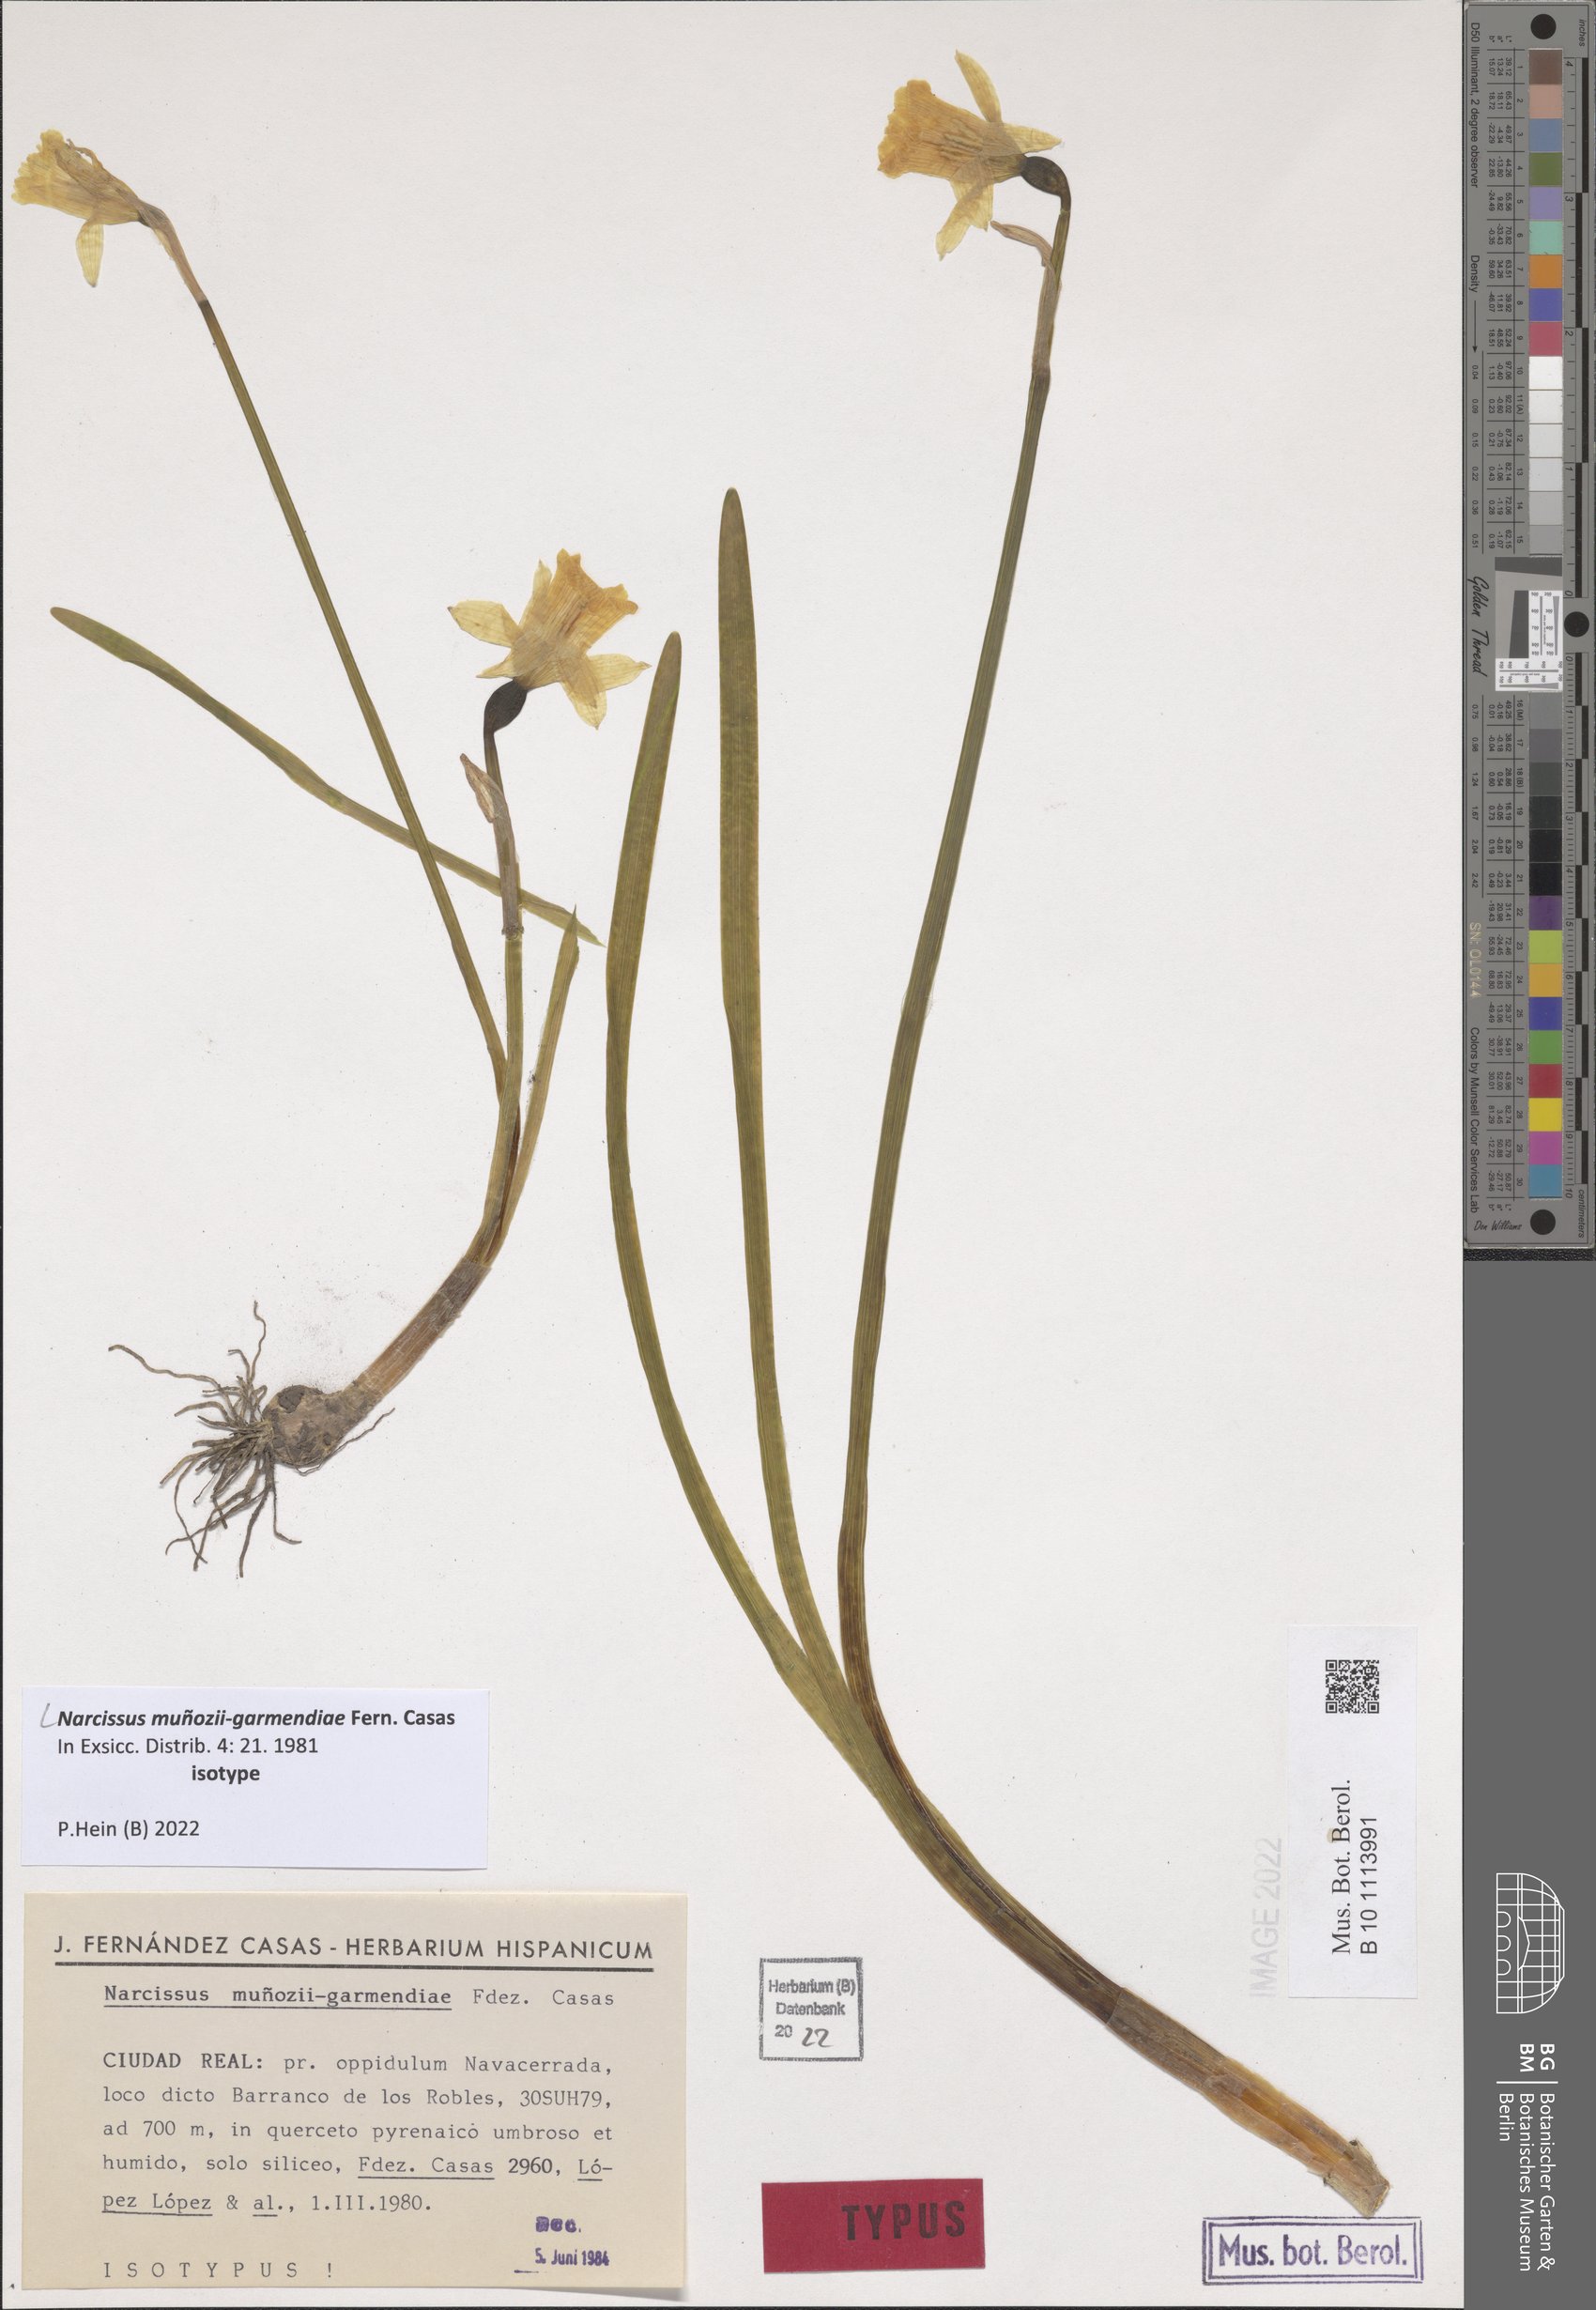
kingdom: Plantae
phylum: Tracheophyta
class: Liliopsida
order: Asparagales
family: Amaryllidaceae
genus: Narcissus
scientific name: Narcissus munozii-garmendiae
